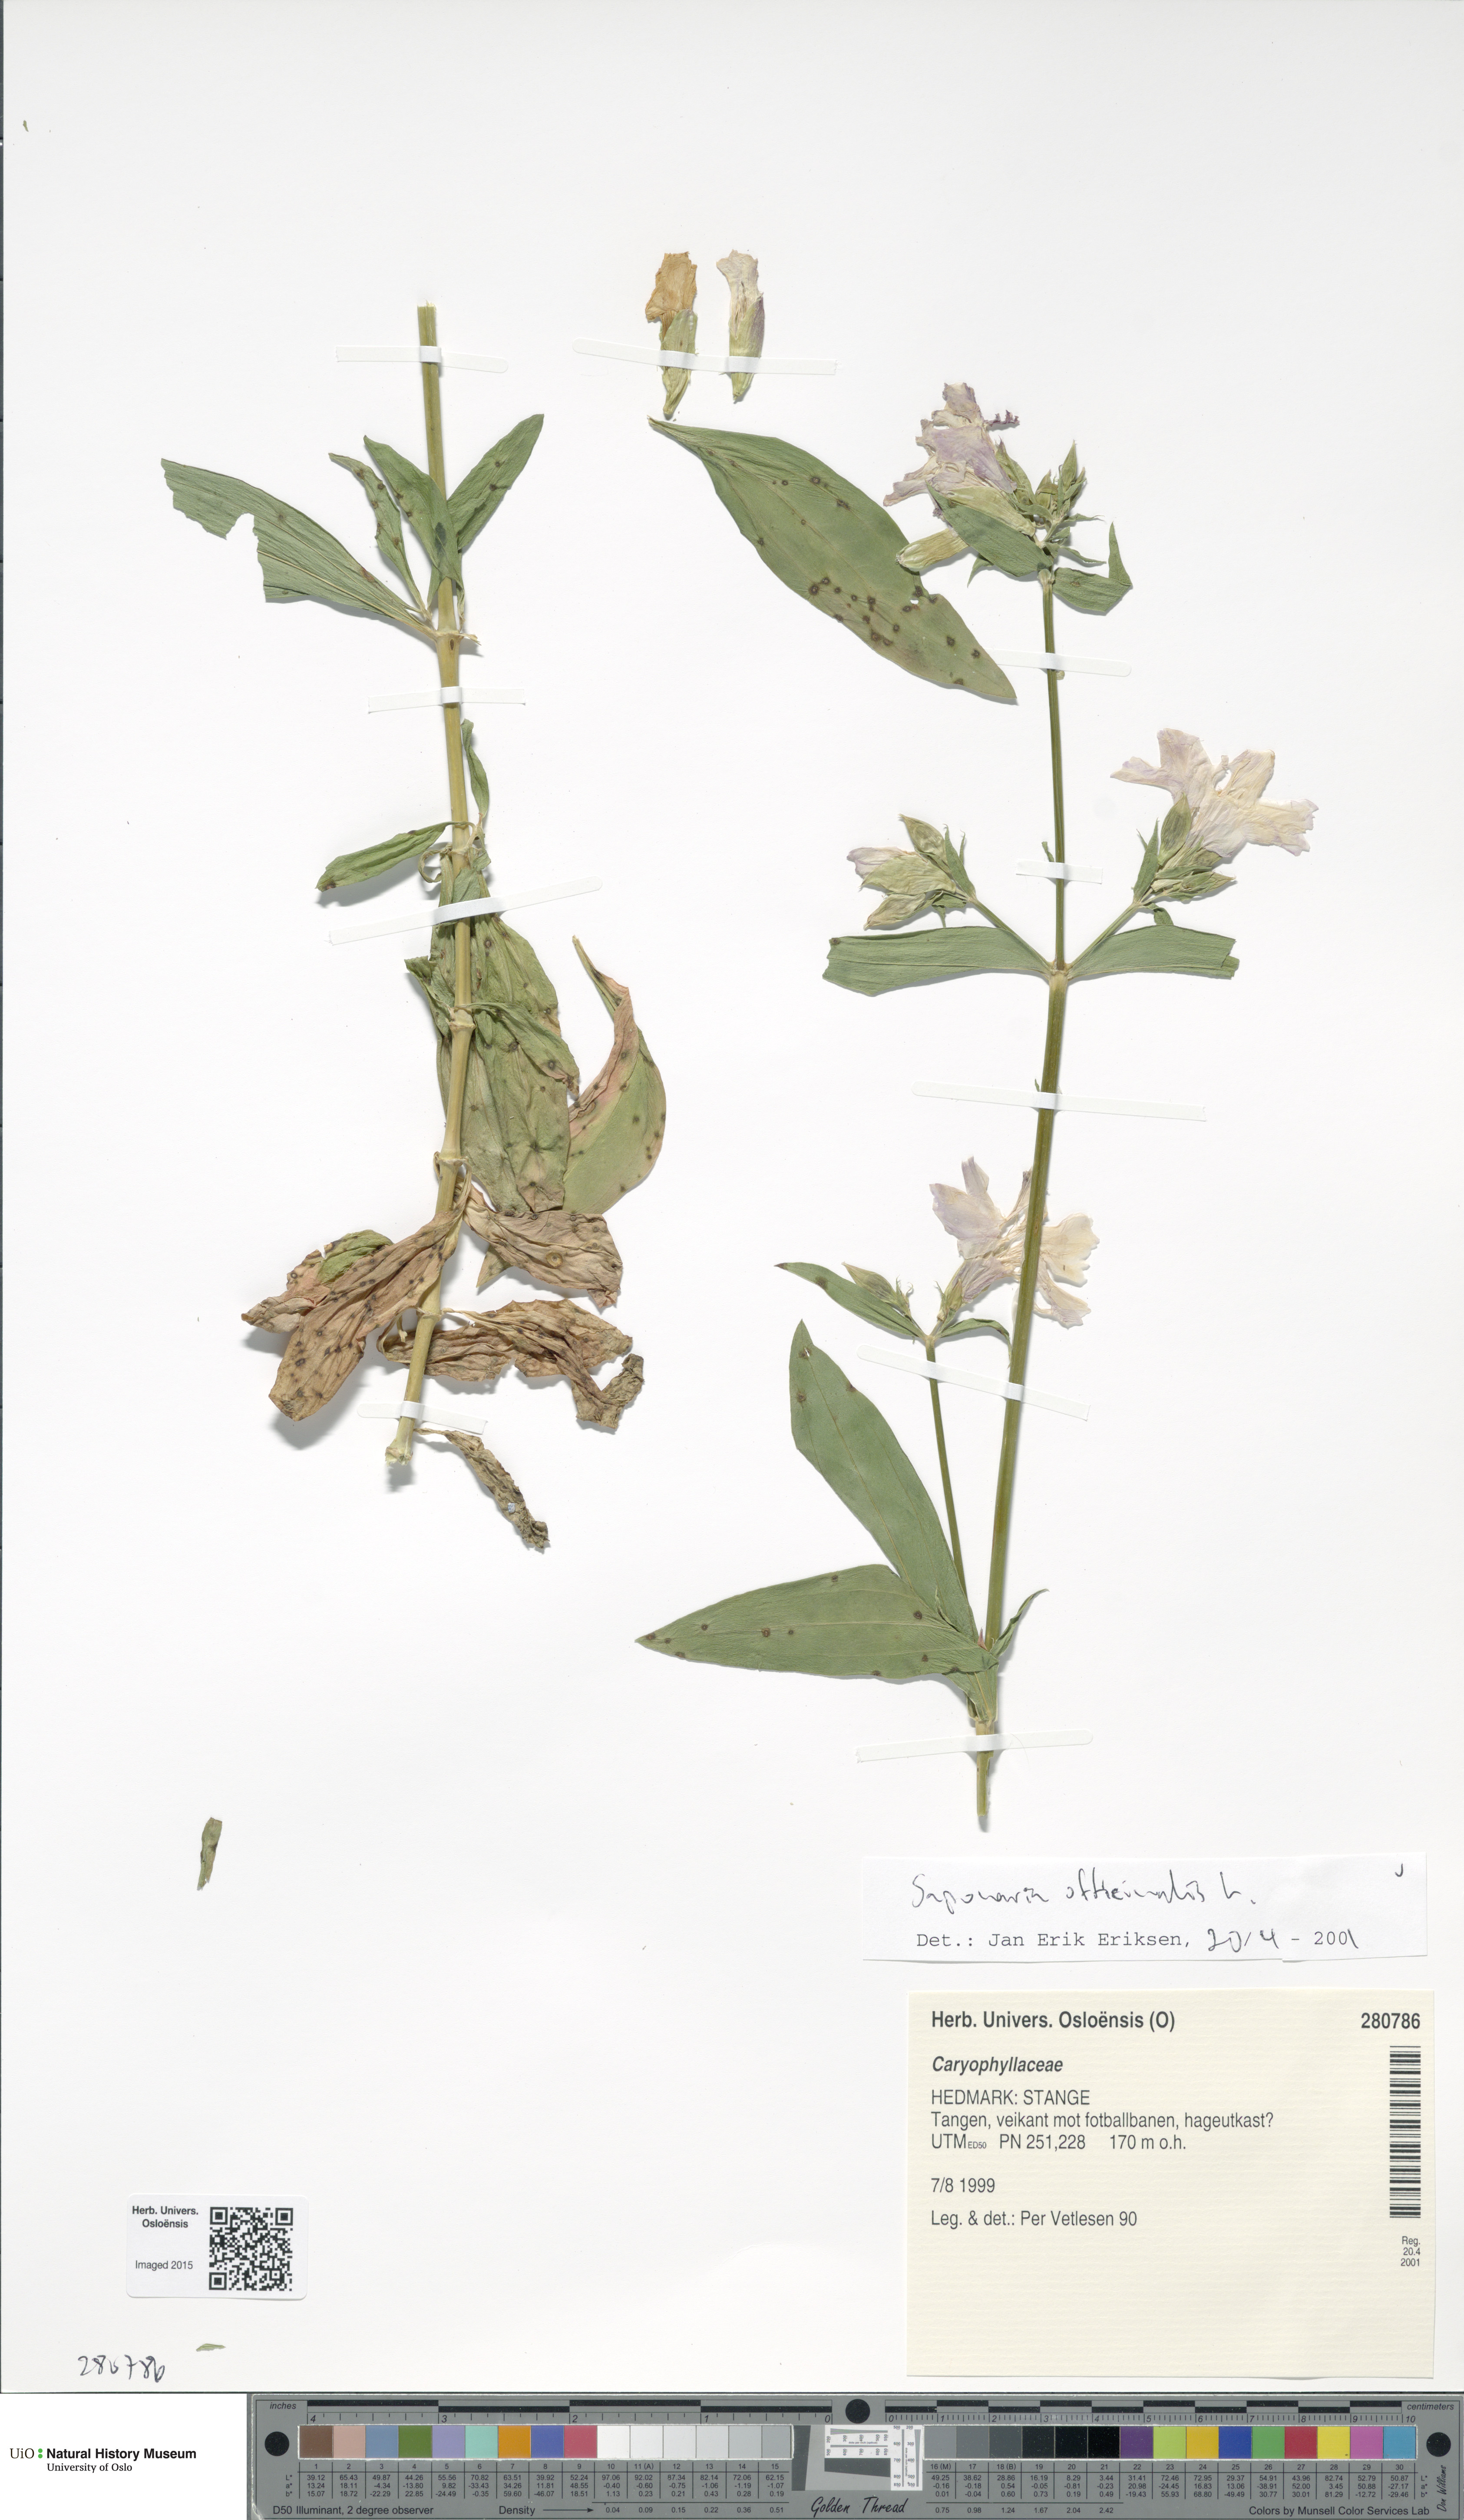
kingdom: Plantae
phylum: Tracheophyta
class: Magnoliopsida
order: Caryophyllales
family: Caryophyllaceae
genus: Saponaria
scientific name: Saponaria officinalis
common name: Soapwort
